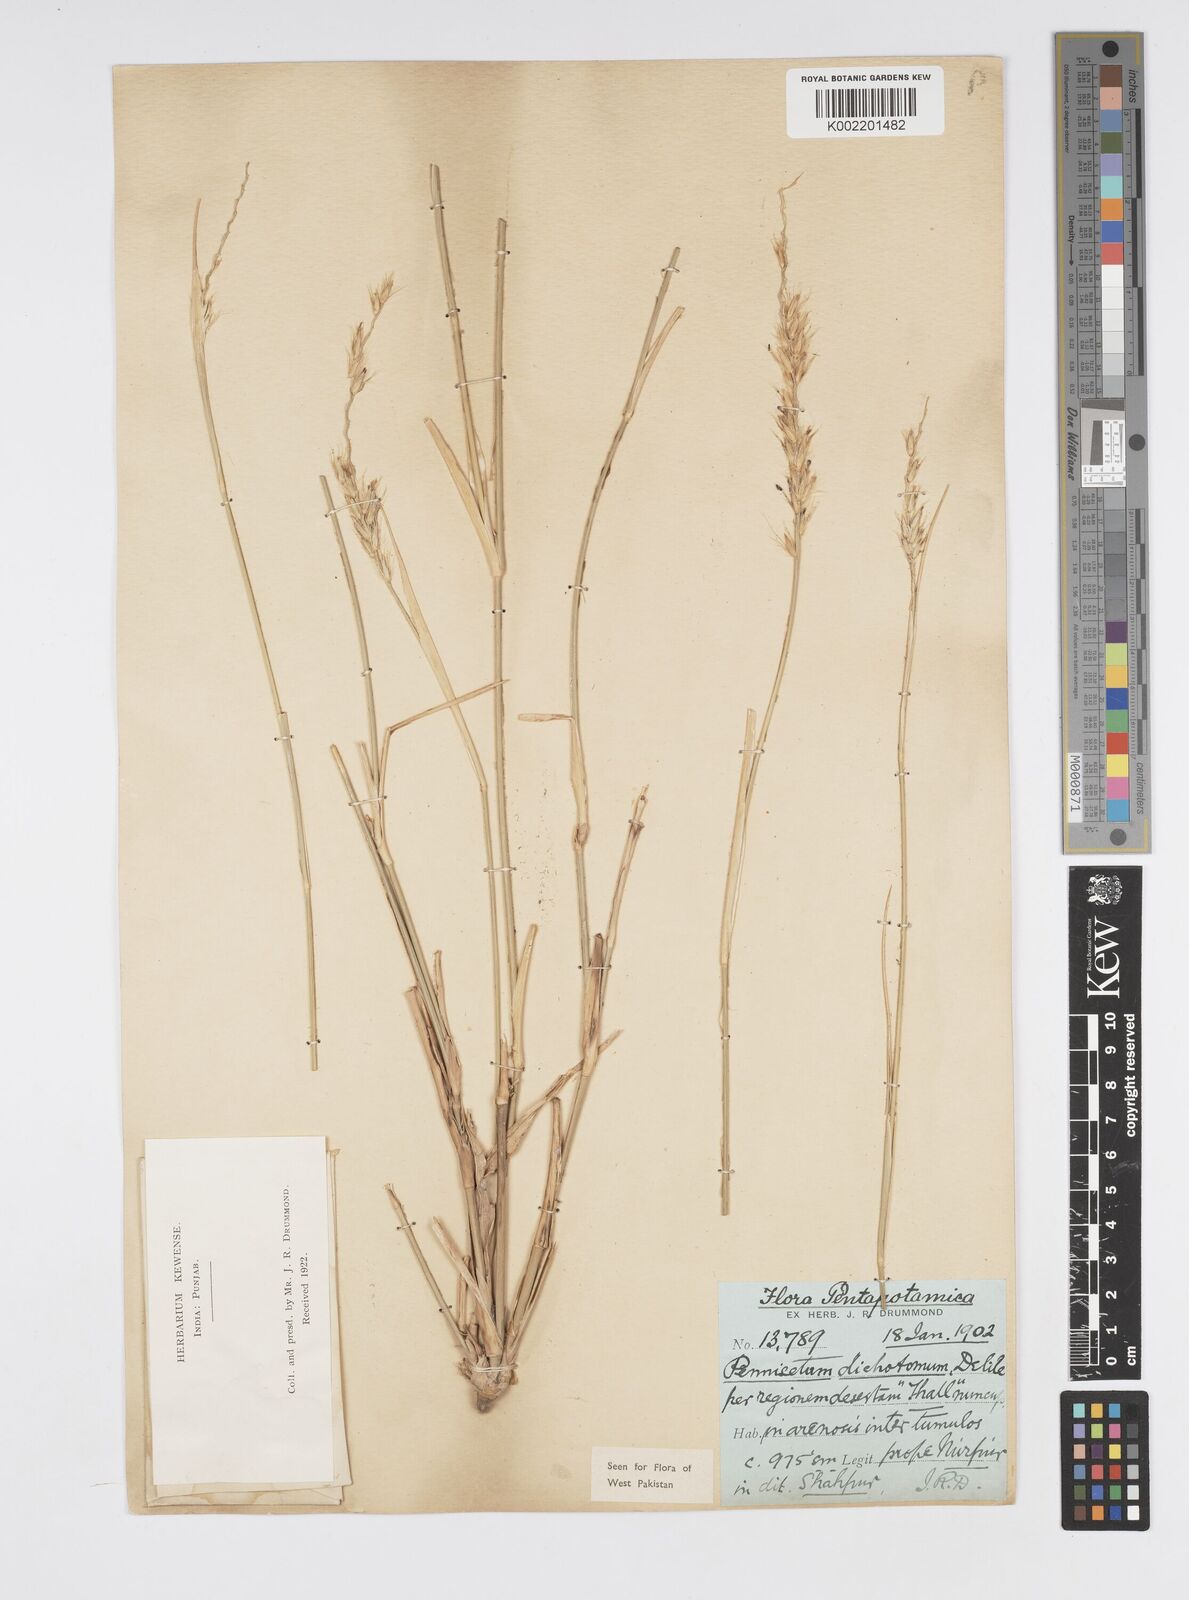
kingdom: Plantae
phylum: Tracheophyta
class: Liliopsida
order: Poales
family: Poaceae
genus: Cenchrus
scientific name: Cenchrus divisus
